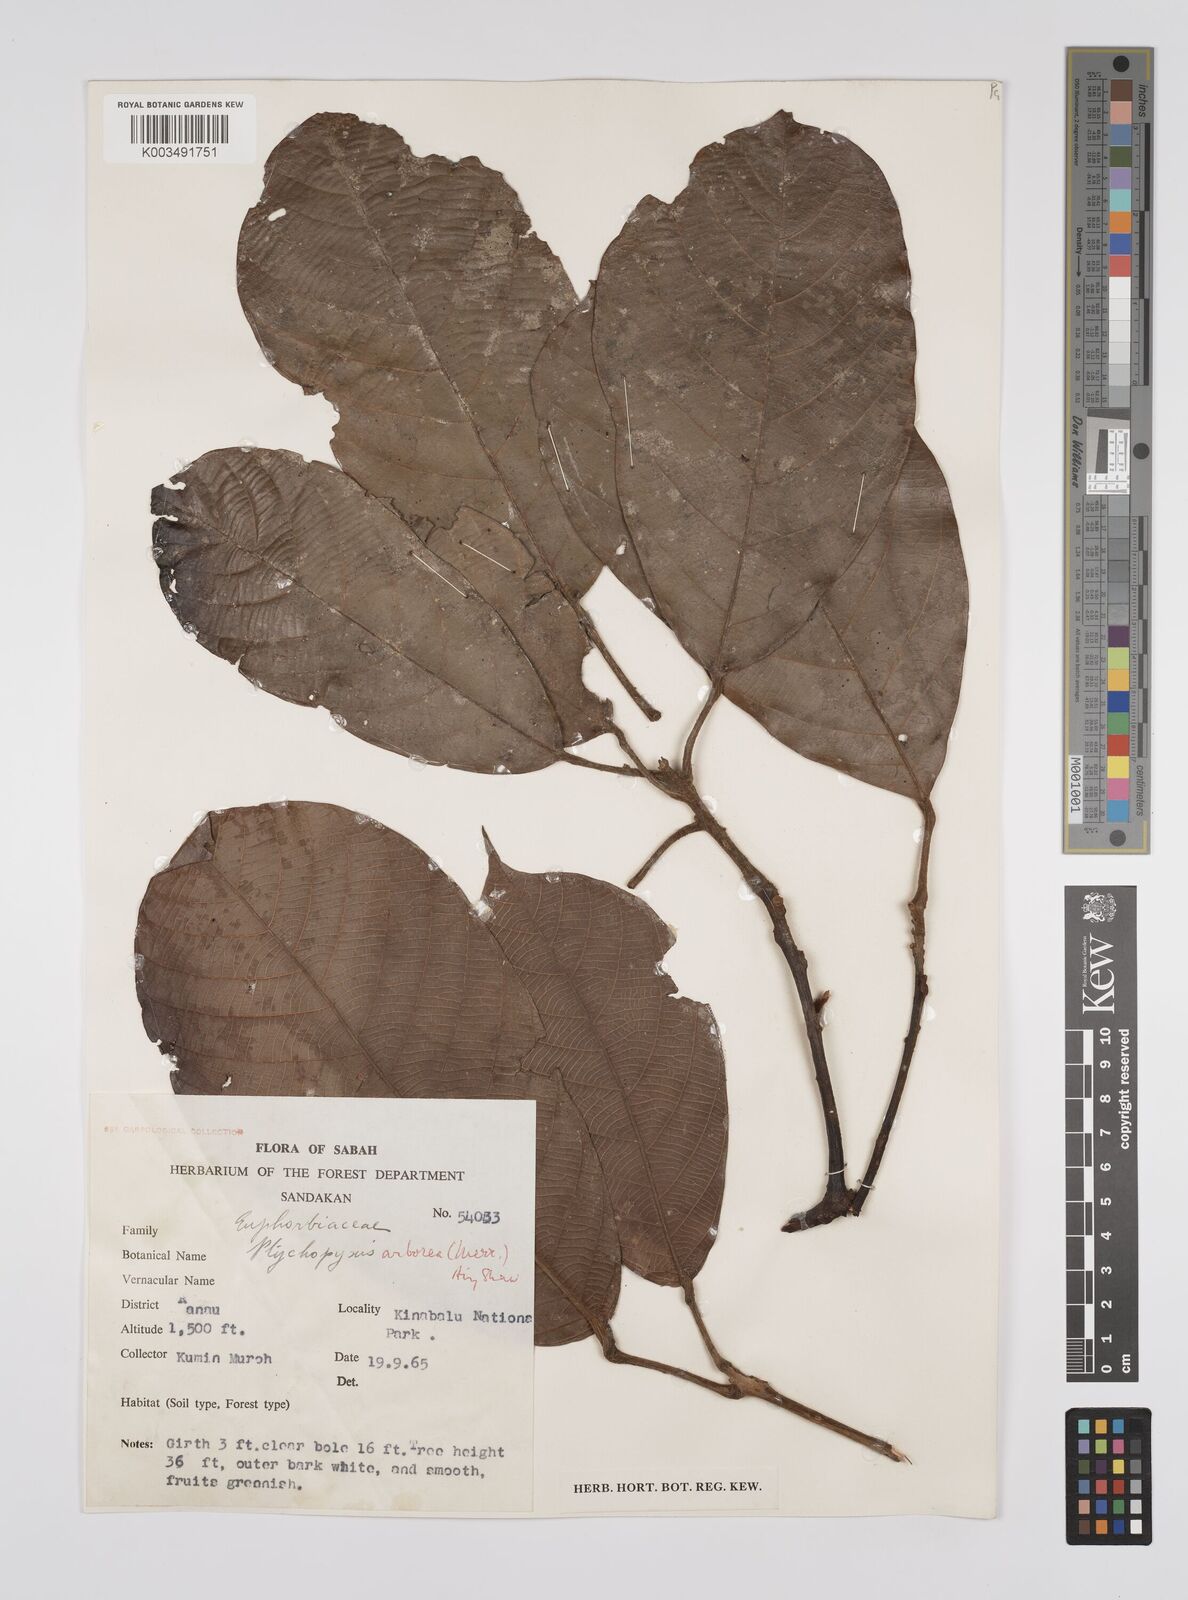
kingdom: Plantae
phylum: Tracheophyta
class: Magnoliopsida
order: Malpighiales
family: Euphorbiaceae
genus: Ptychopyxis
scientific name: Ptychopyxis arborea
